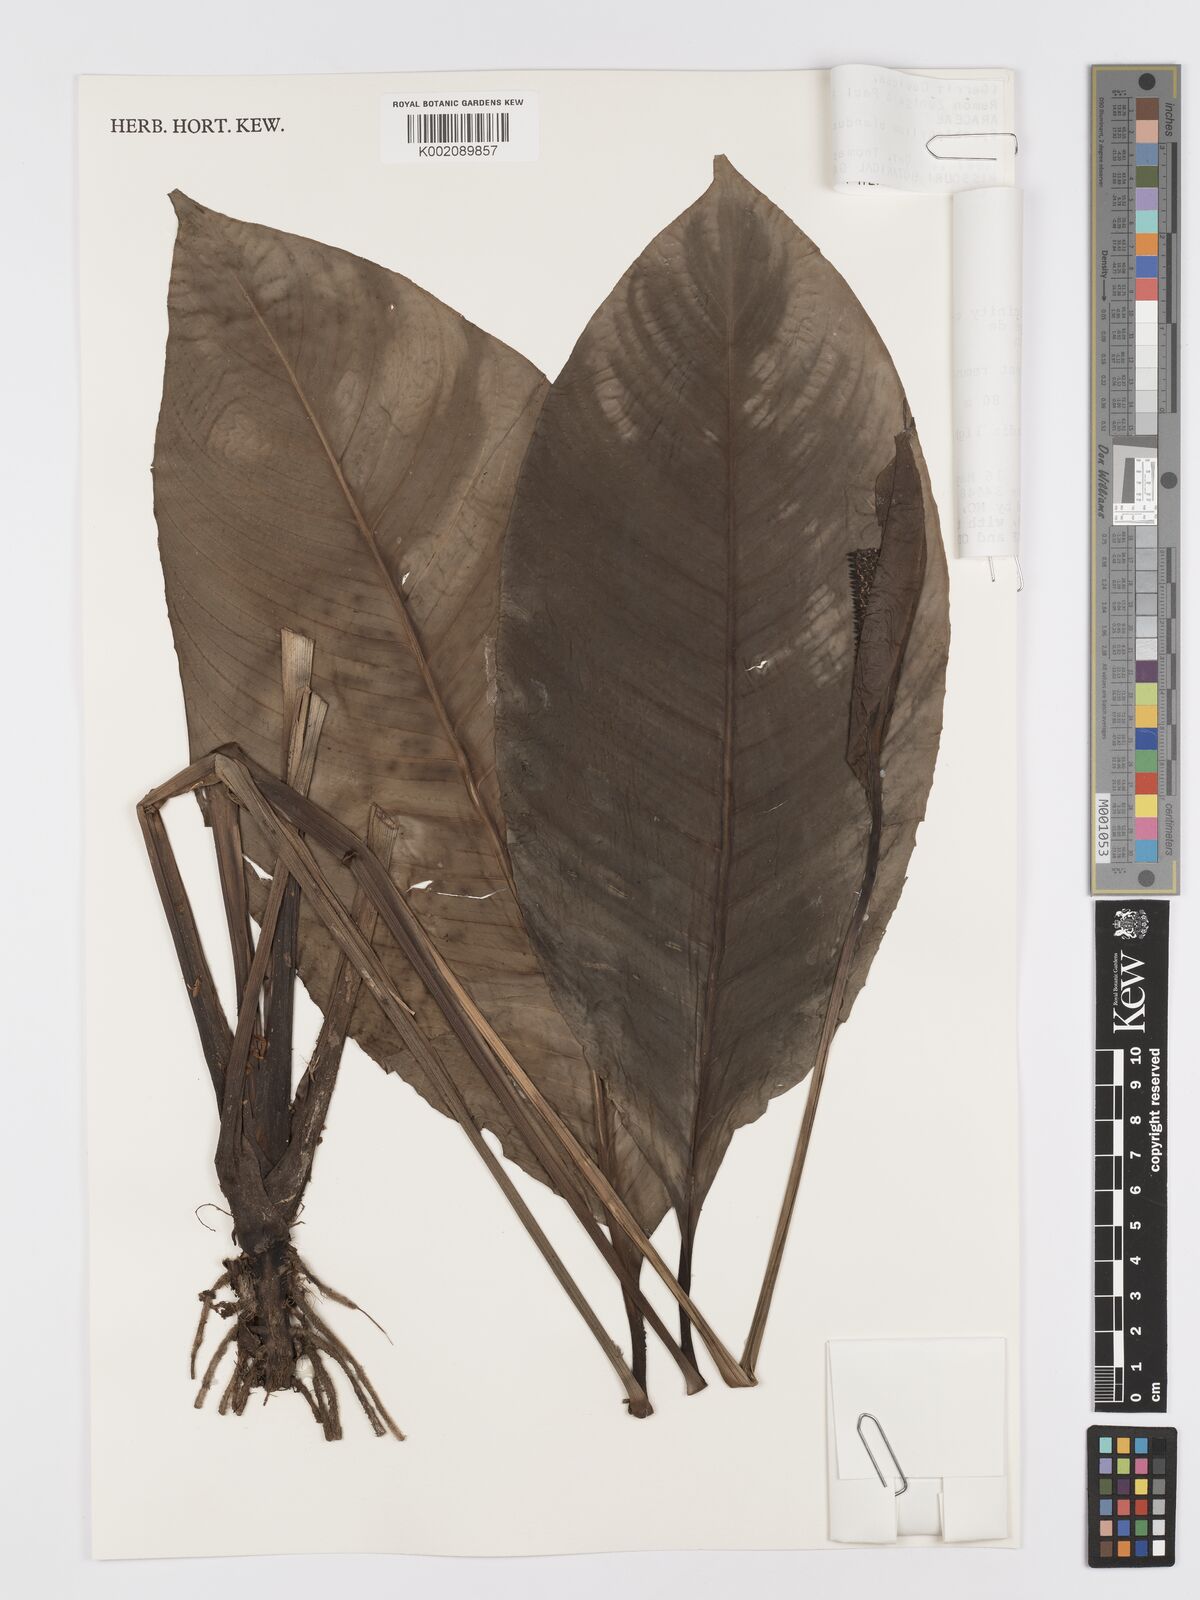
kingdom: Plantae
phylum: Tracheophyta
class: Liliopsida
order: Alismatales
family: Araceae
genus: Spathiphyllum
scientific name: Spathiphyllum blandum
